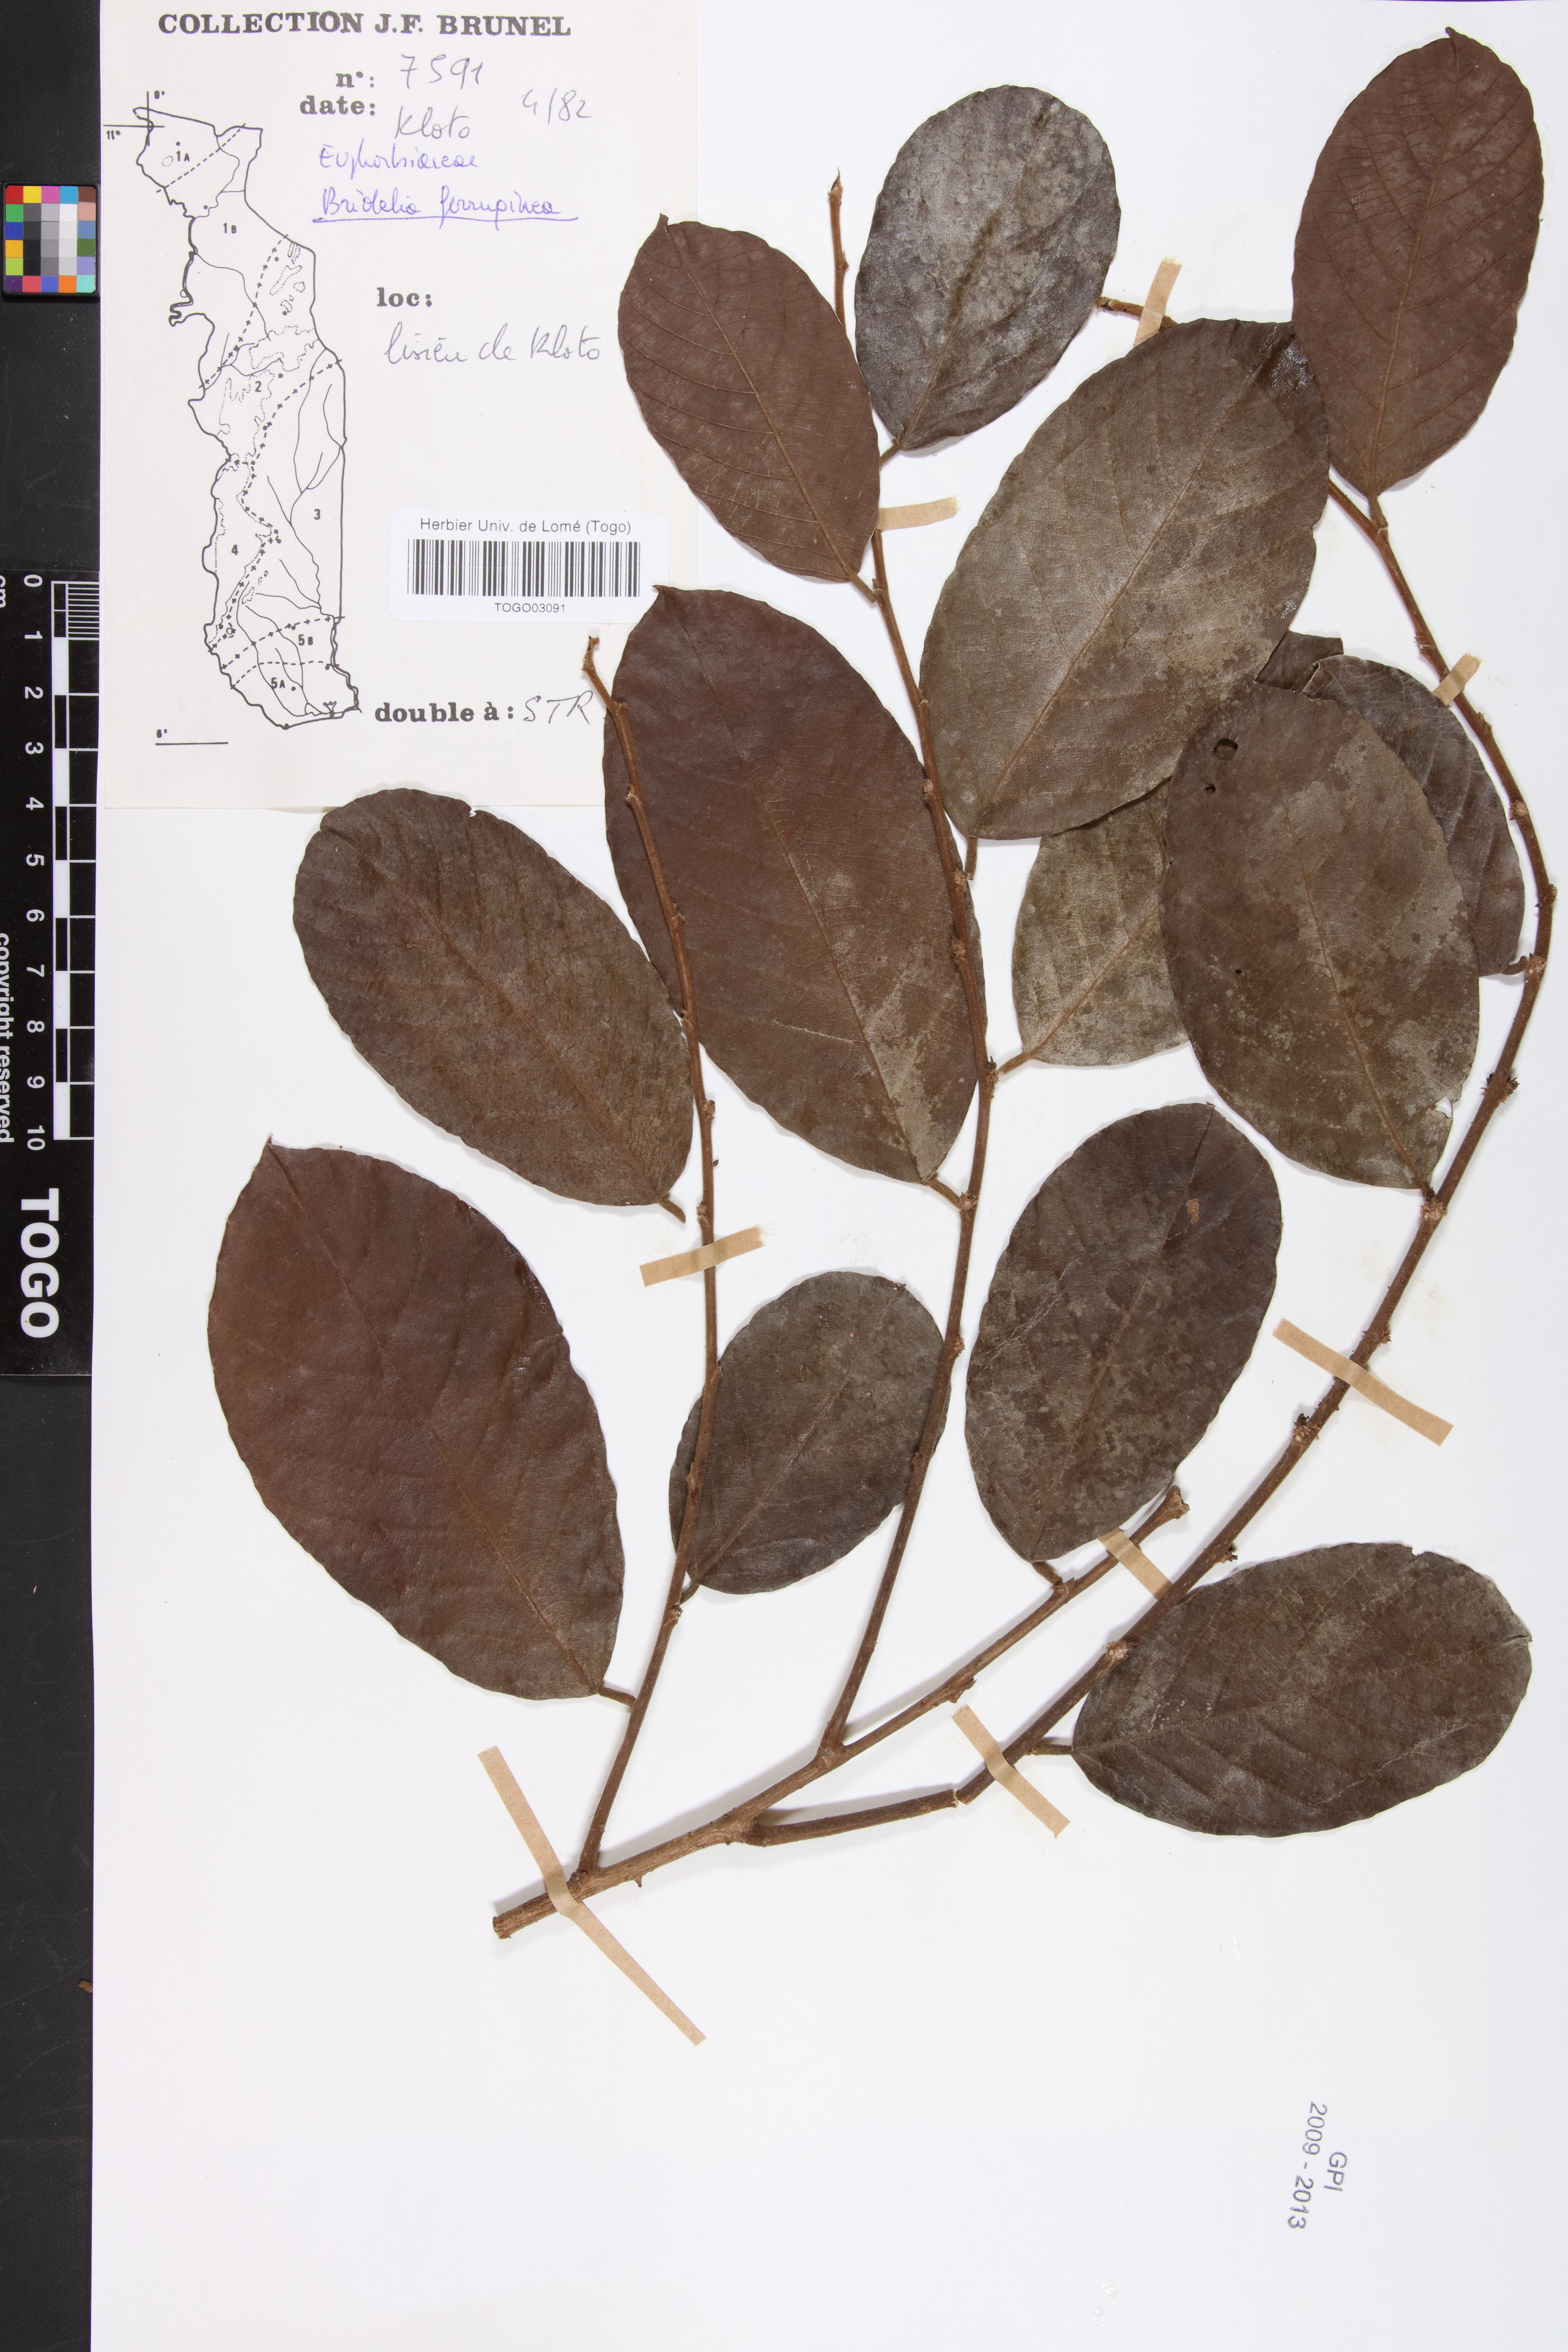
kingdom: Plantae
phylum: Tracheophyta
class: Magnoliopsida
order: Malpighiales
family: Phyllanthaceae
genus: Bridelia
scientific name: Bridelia ferruginea
